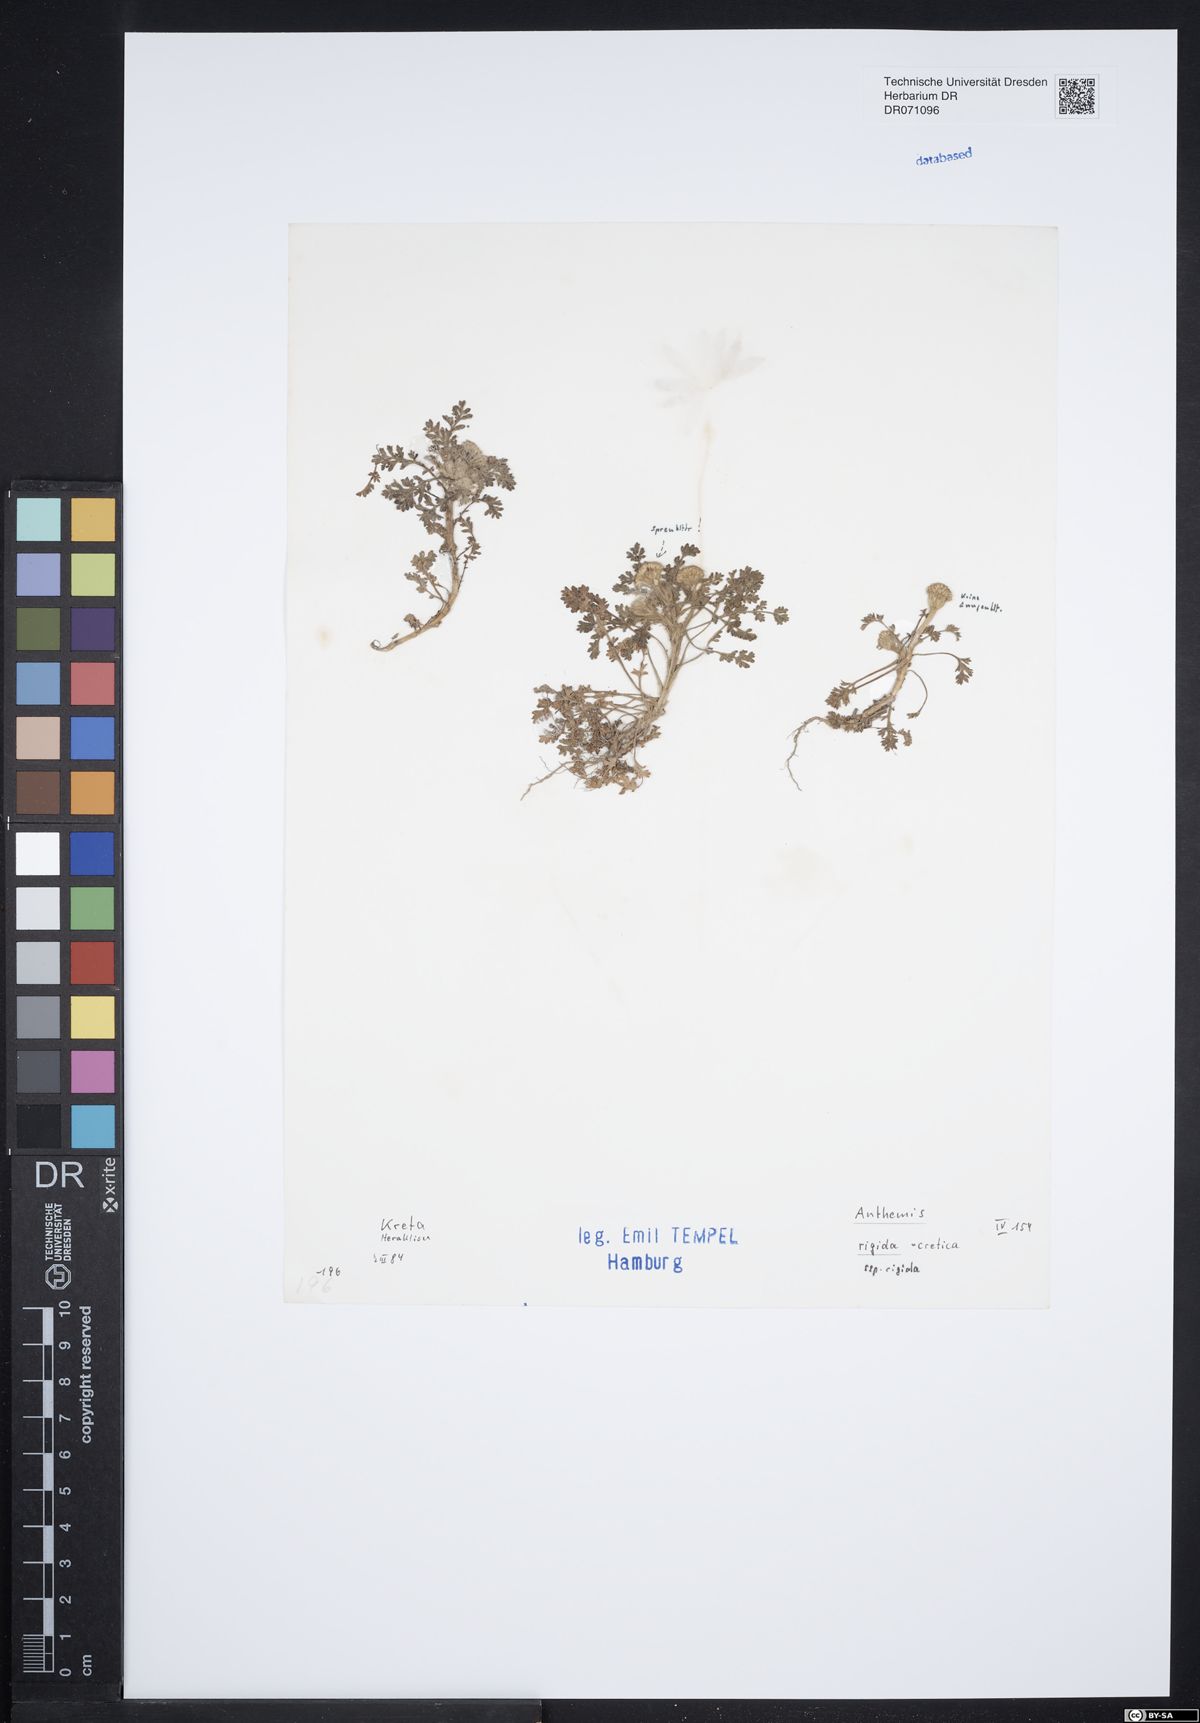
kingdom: Plantae
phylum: Tracheophyta
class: Magnoliopsida
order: Asterales
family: Asteraceae
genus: Anthemis
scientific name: Anthemis rigida
